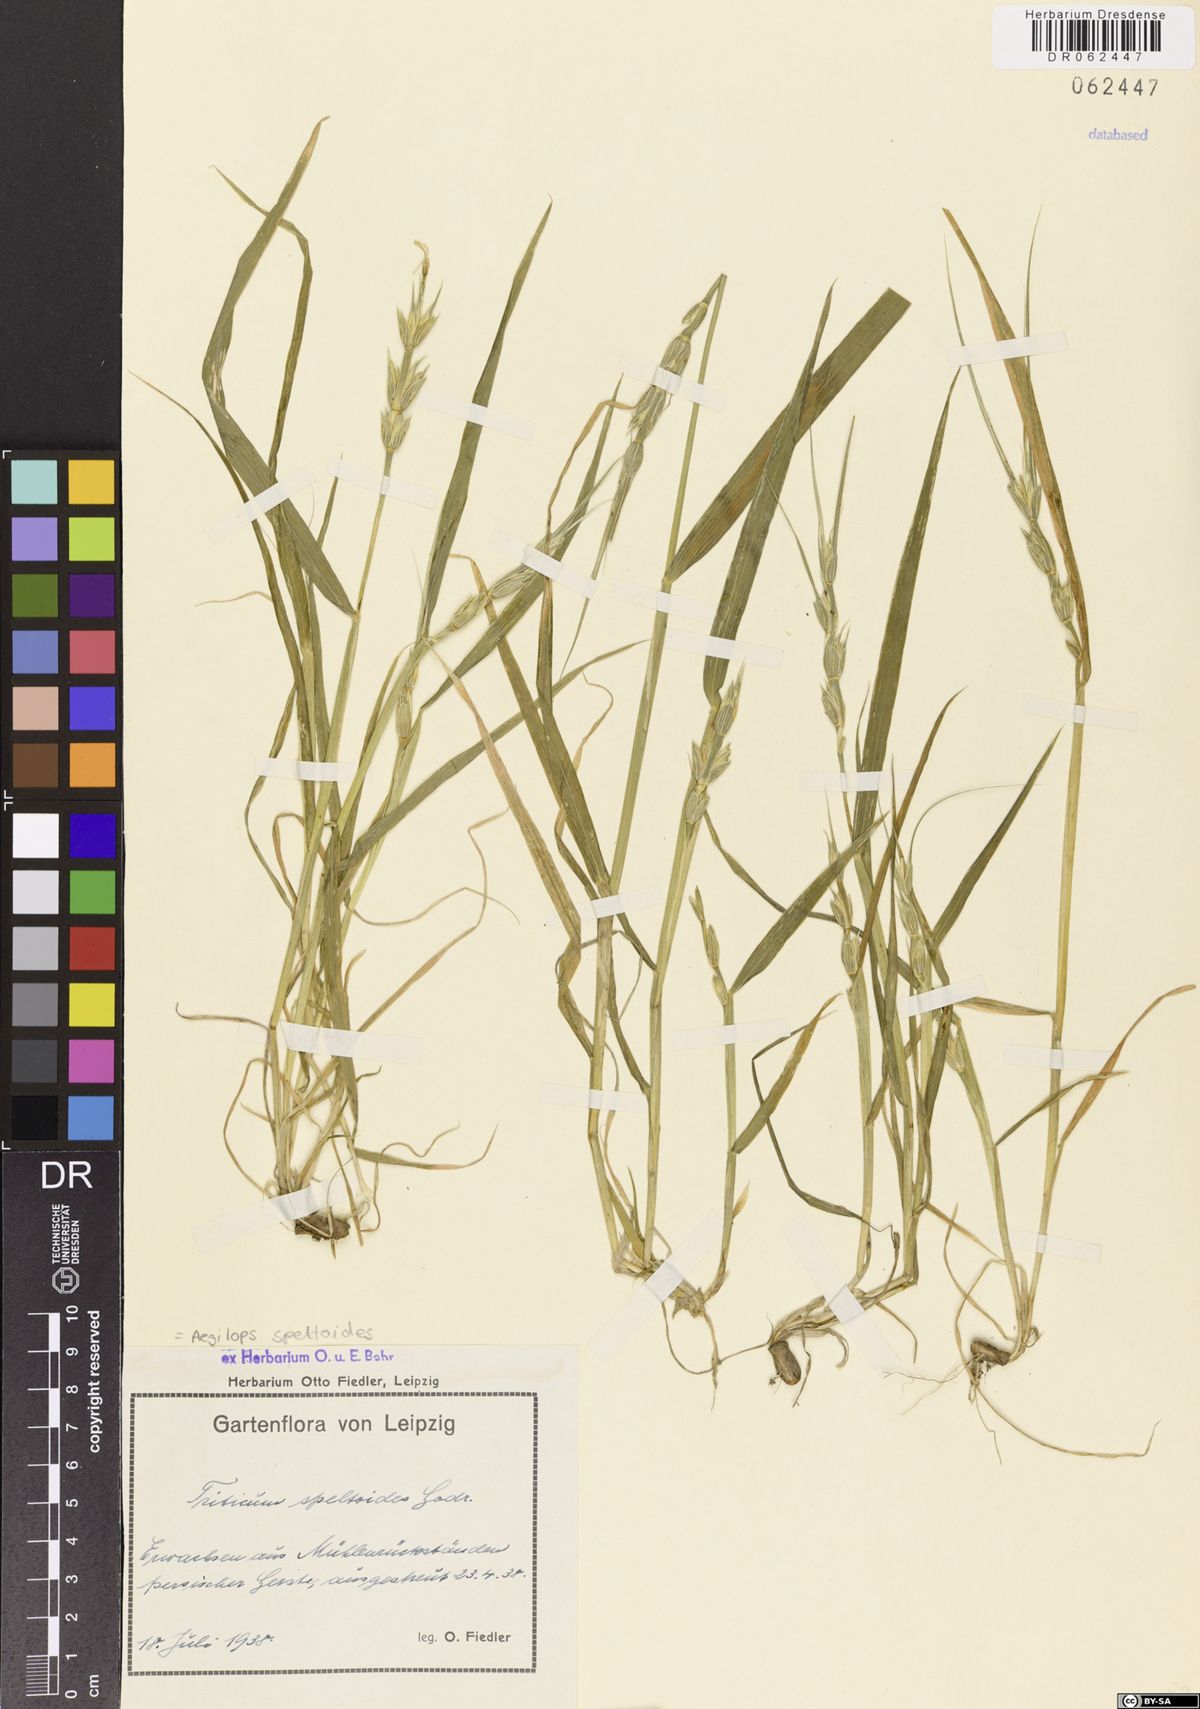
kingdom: Plantae
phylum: Tracheophyta
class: Liliopsida
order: Poales
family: Poaceae
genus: Aegilops
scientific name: Aegilops speltoides
